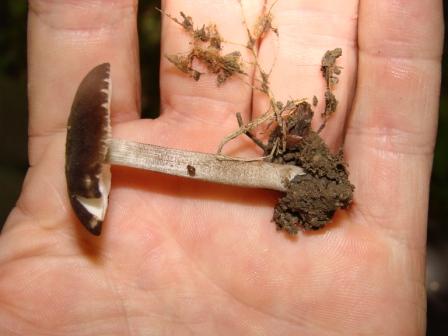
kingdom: Fungi
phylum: Basidiomycota
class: Agaricomycetes
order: Agaricales
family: Pluteaceae
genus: Pluteus
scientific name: Pluteus podospileus
